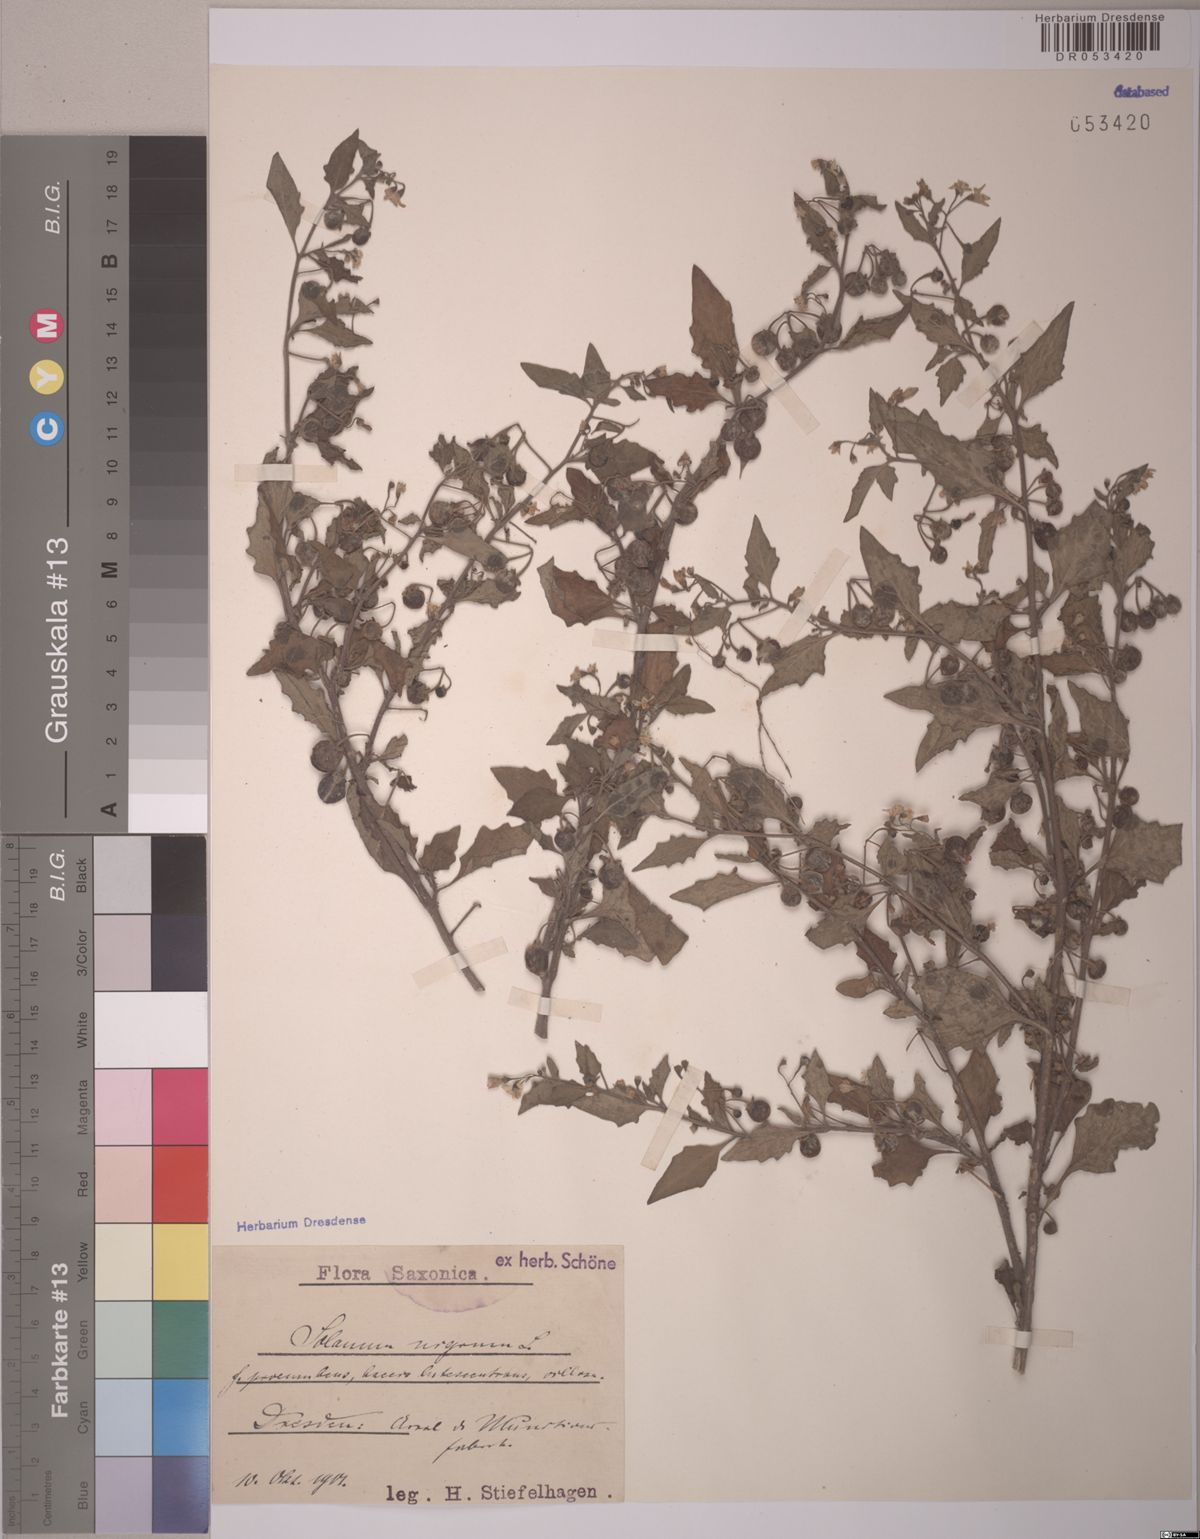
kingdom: Plantae
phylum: Tracheophyta
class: Magnoliopsida
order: Solanales
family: Solanaceae
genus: Solanum
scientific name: Solanum nigrum
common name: Black nightshade
